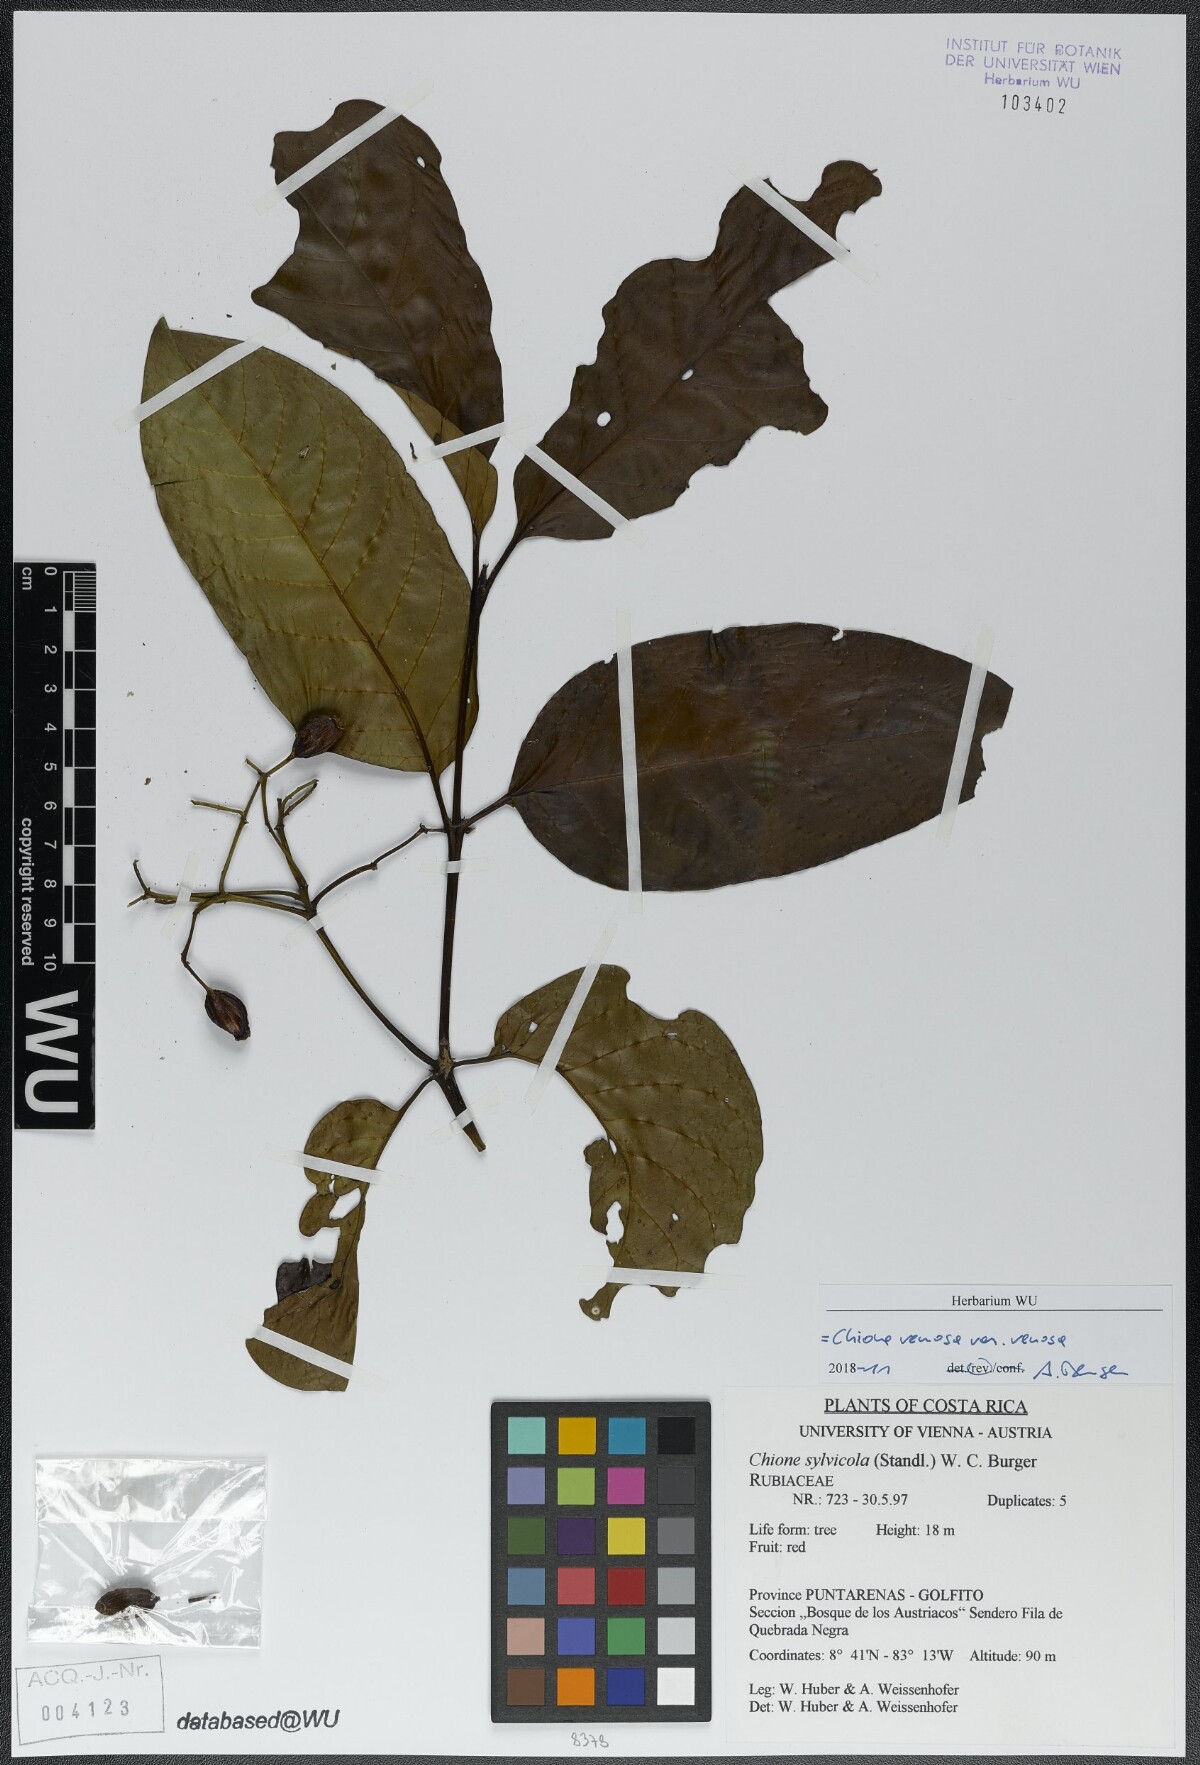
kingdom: Plantae
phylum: Tracheophyta
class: Magnoliopsida
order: Gentianales
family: Rubiaceae
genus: Chione
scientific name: Chione venosa
